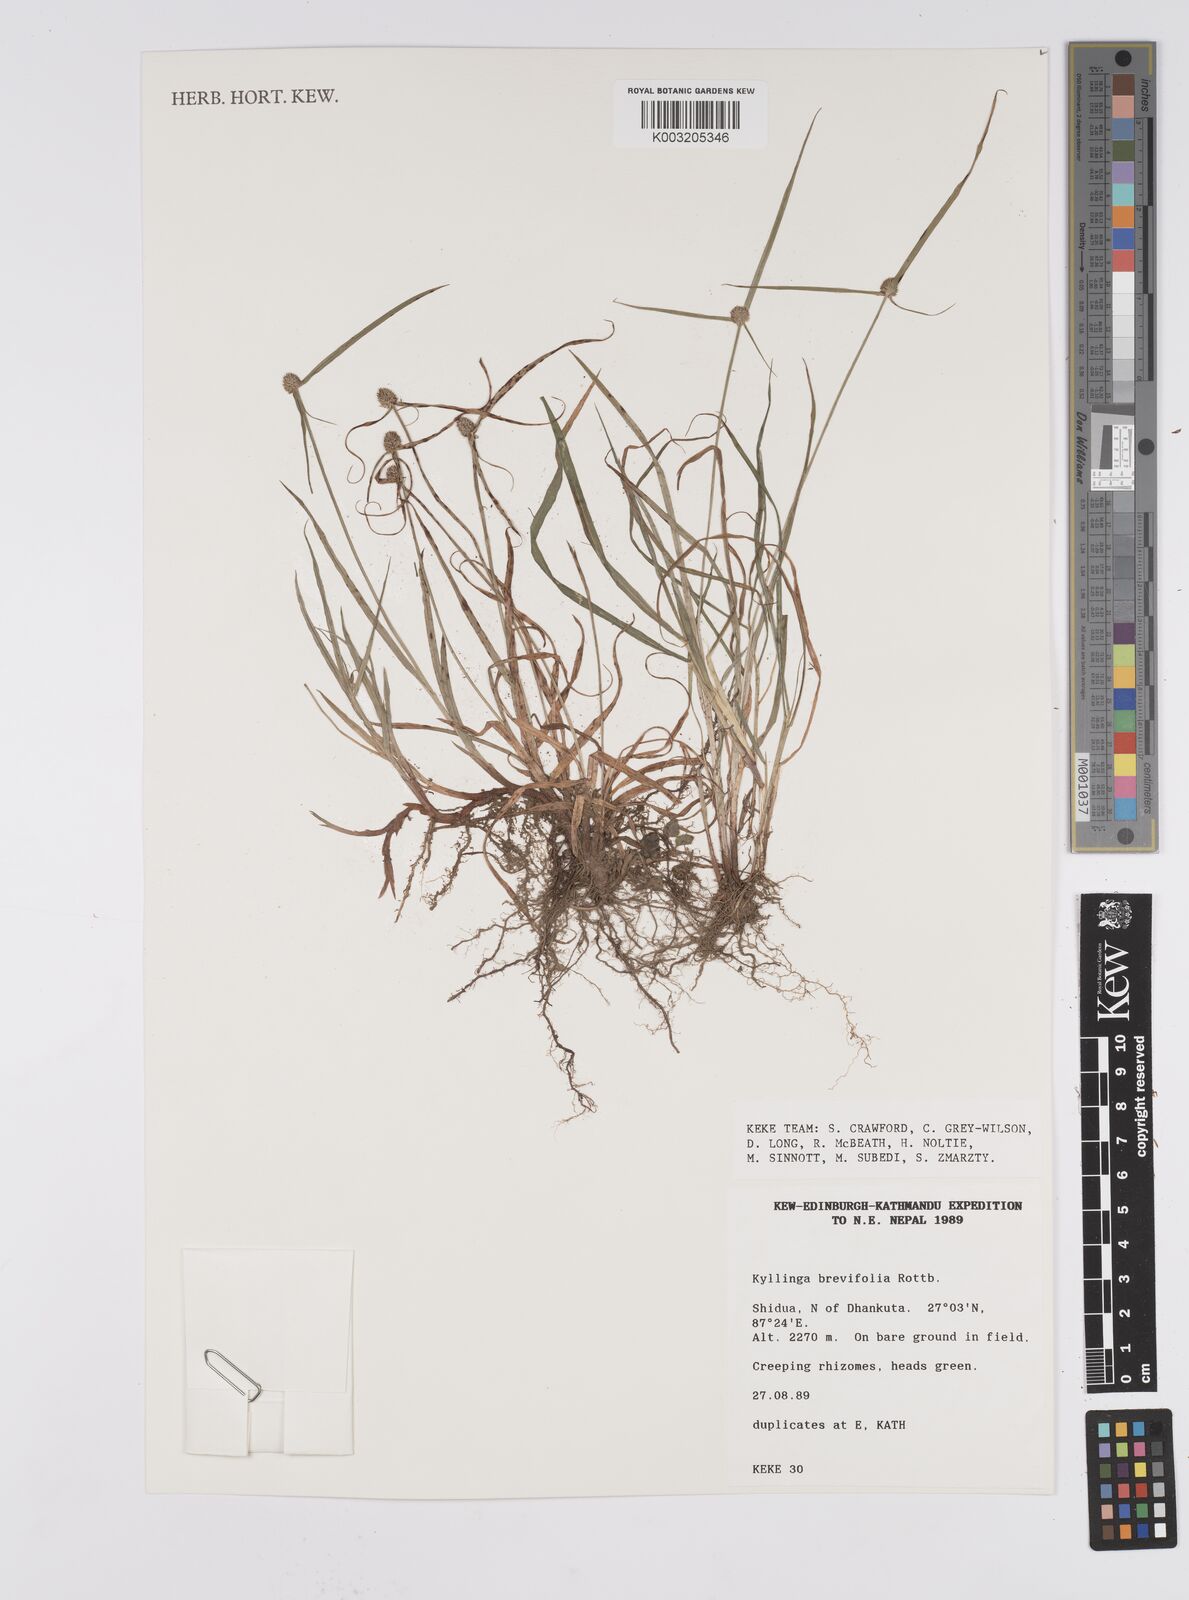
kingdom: Plantae
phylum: Tracheophyta
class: Liliopsida
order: Poales
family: Cyperaceae
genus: Cyperus
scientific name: Cyperus brevifolius
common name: Globe kyllinga
